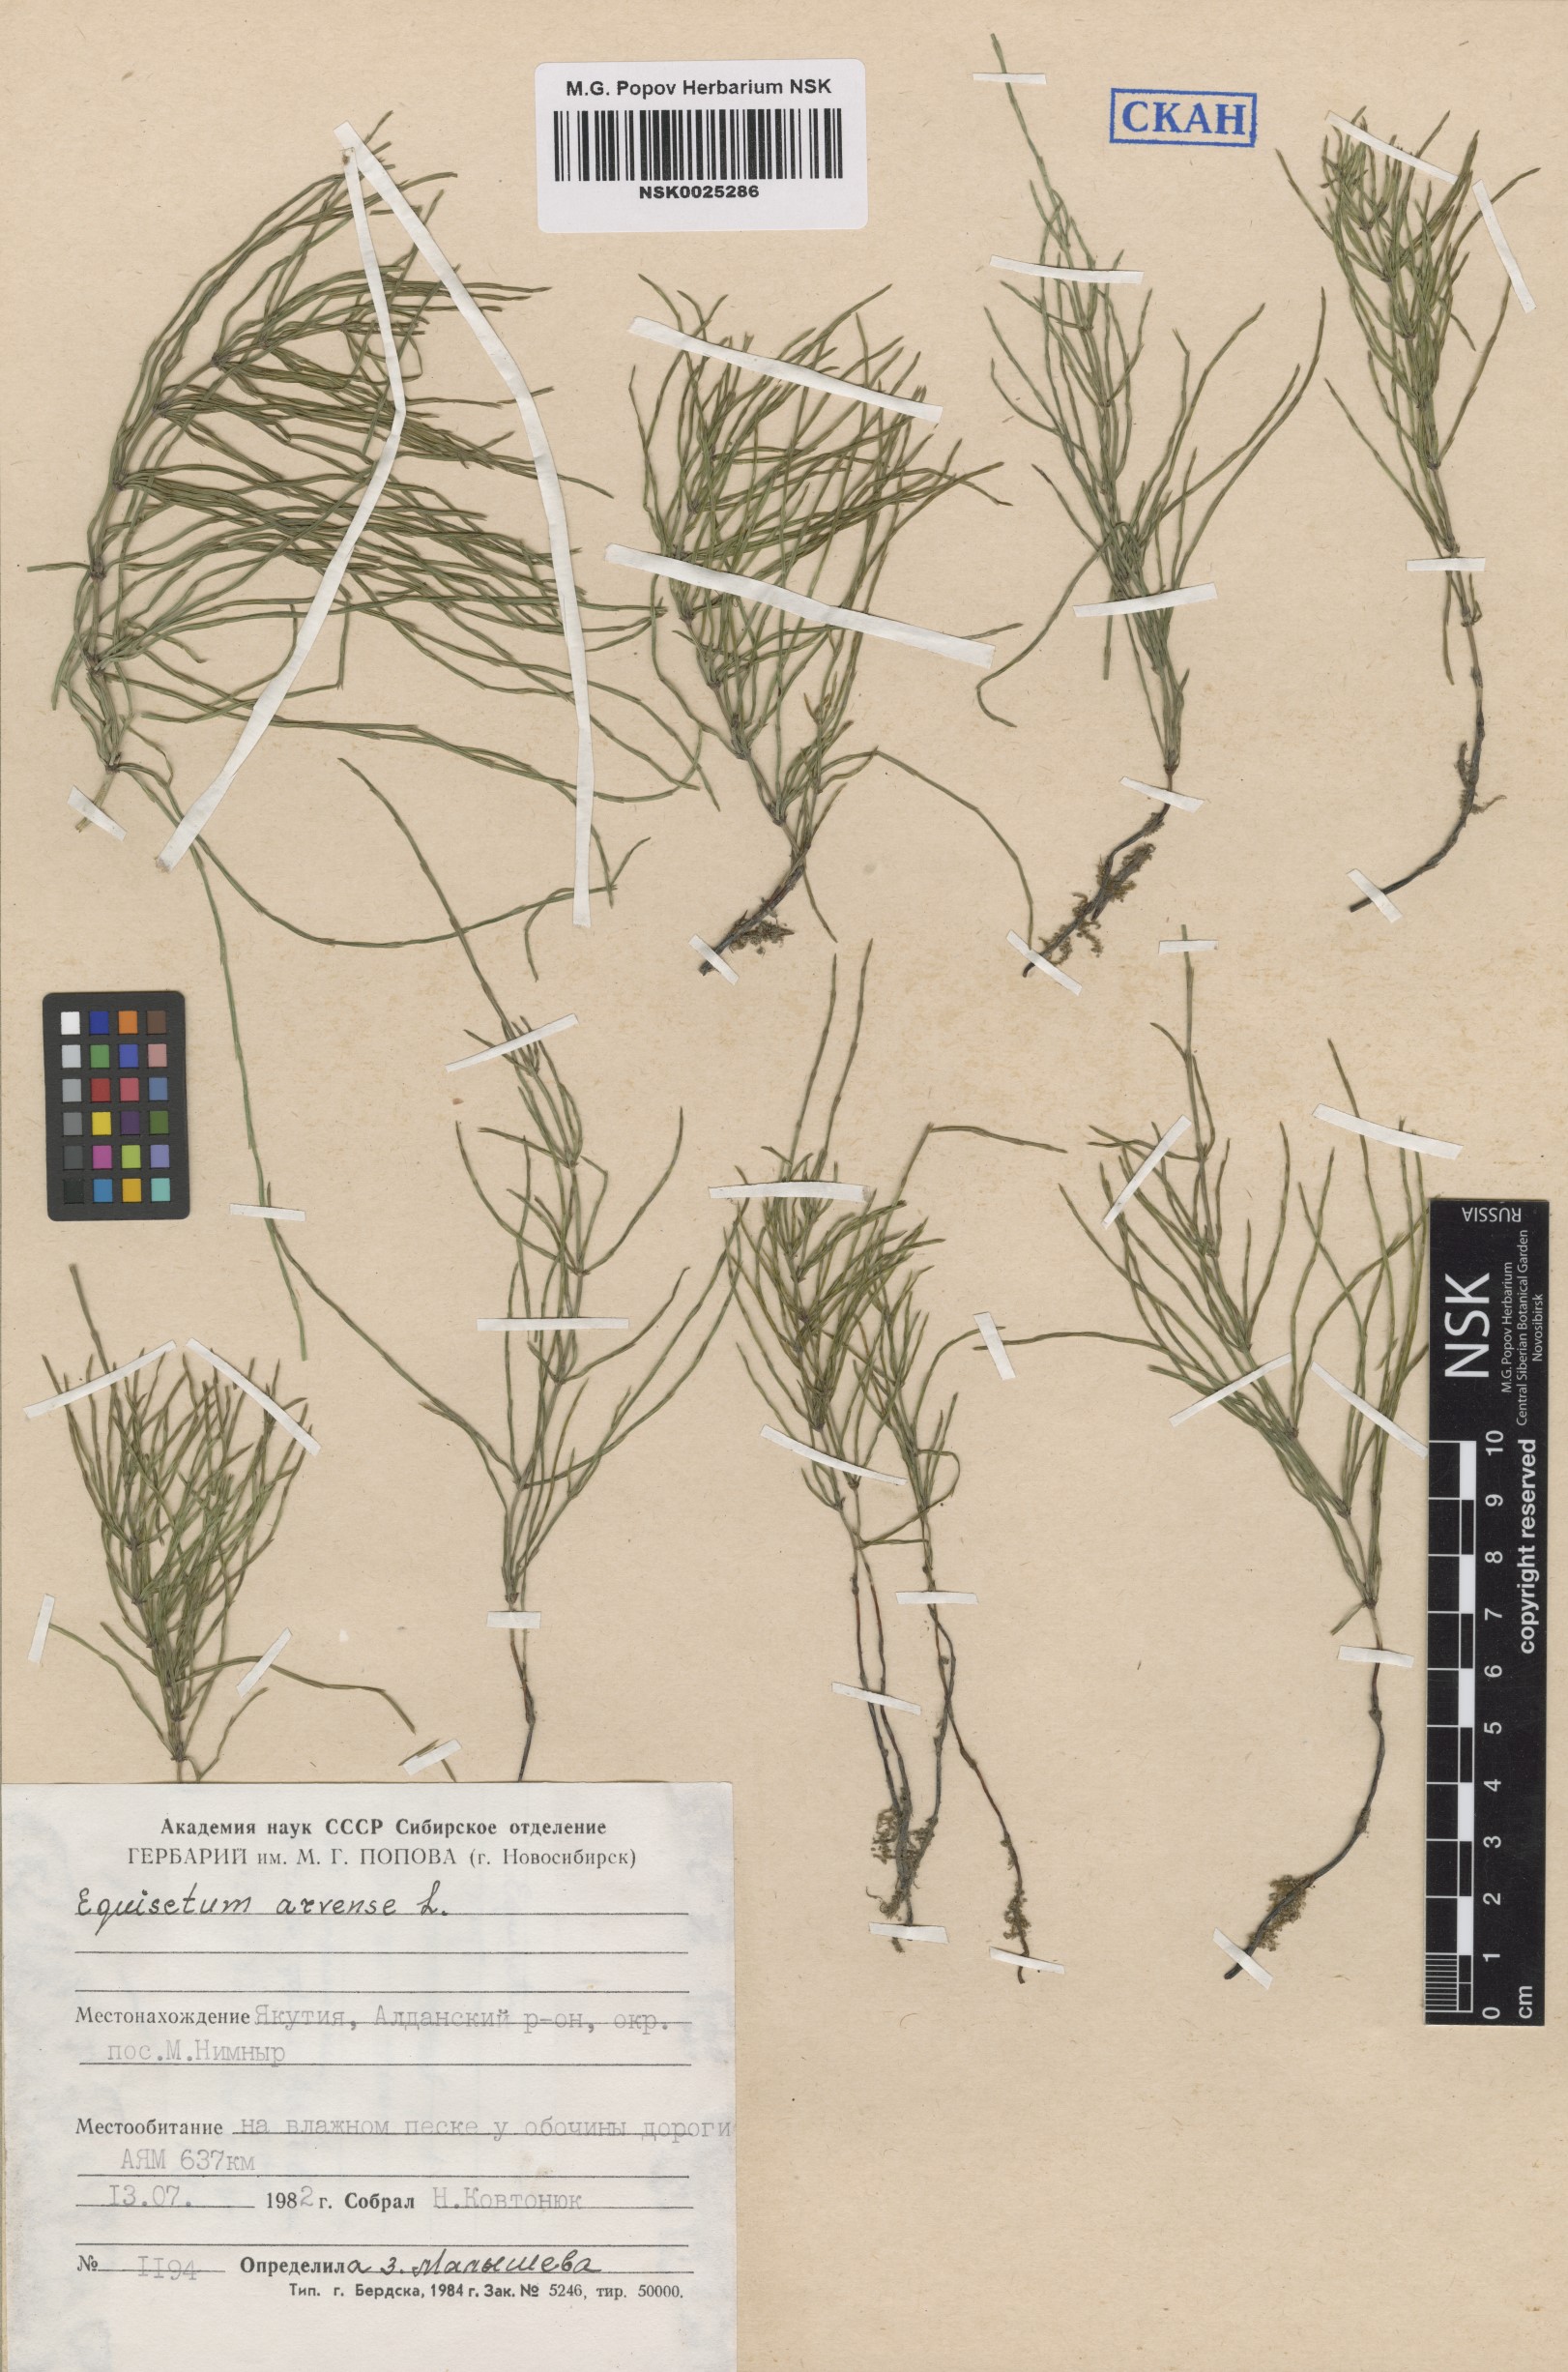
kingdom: Plantae
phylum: Tracheophyta
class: Polypodiopsida
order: Equisetales
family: Equisetaceae
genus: Equisetum
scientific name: Equisetum arvense
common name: Field horsetail
